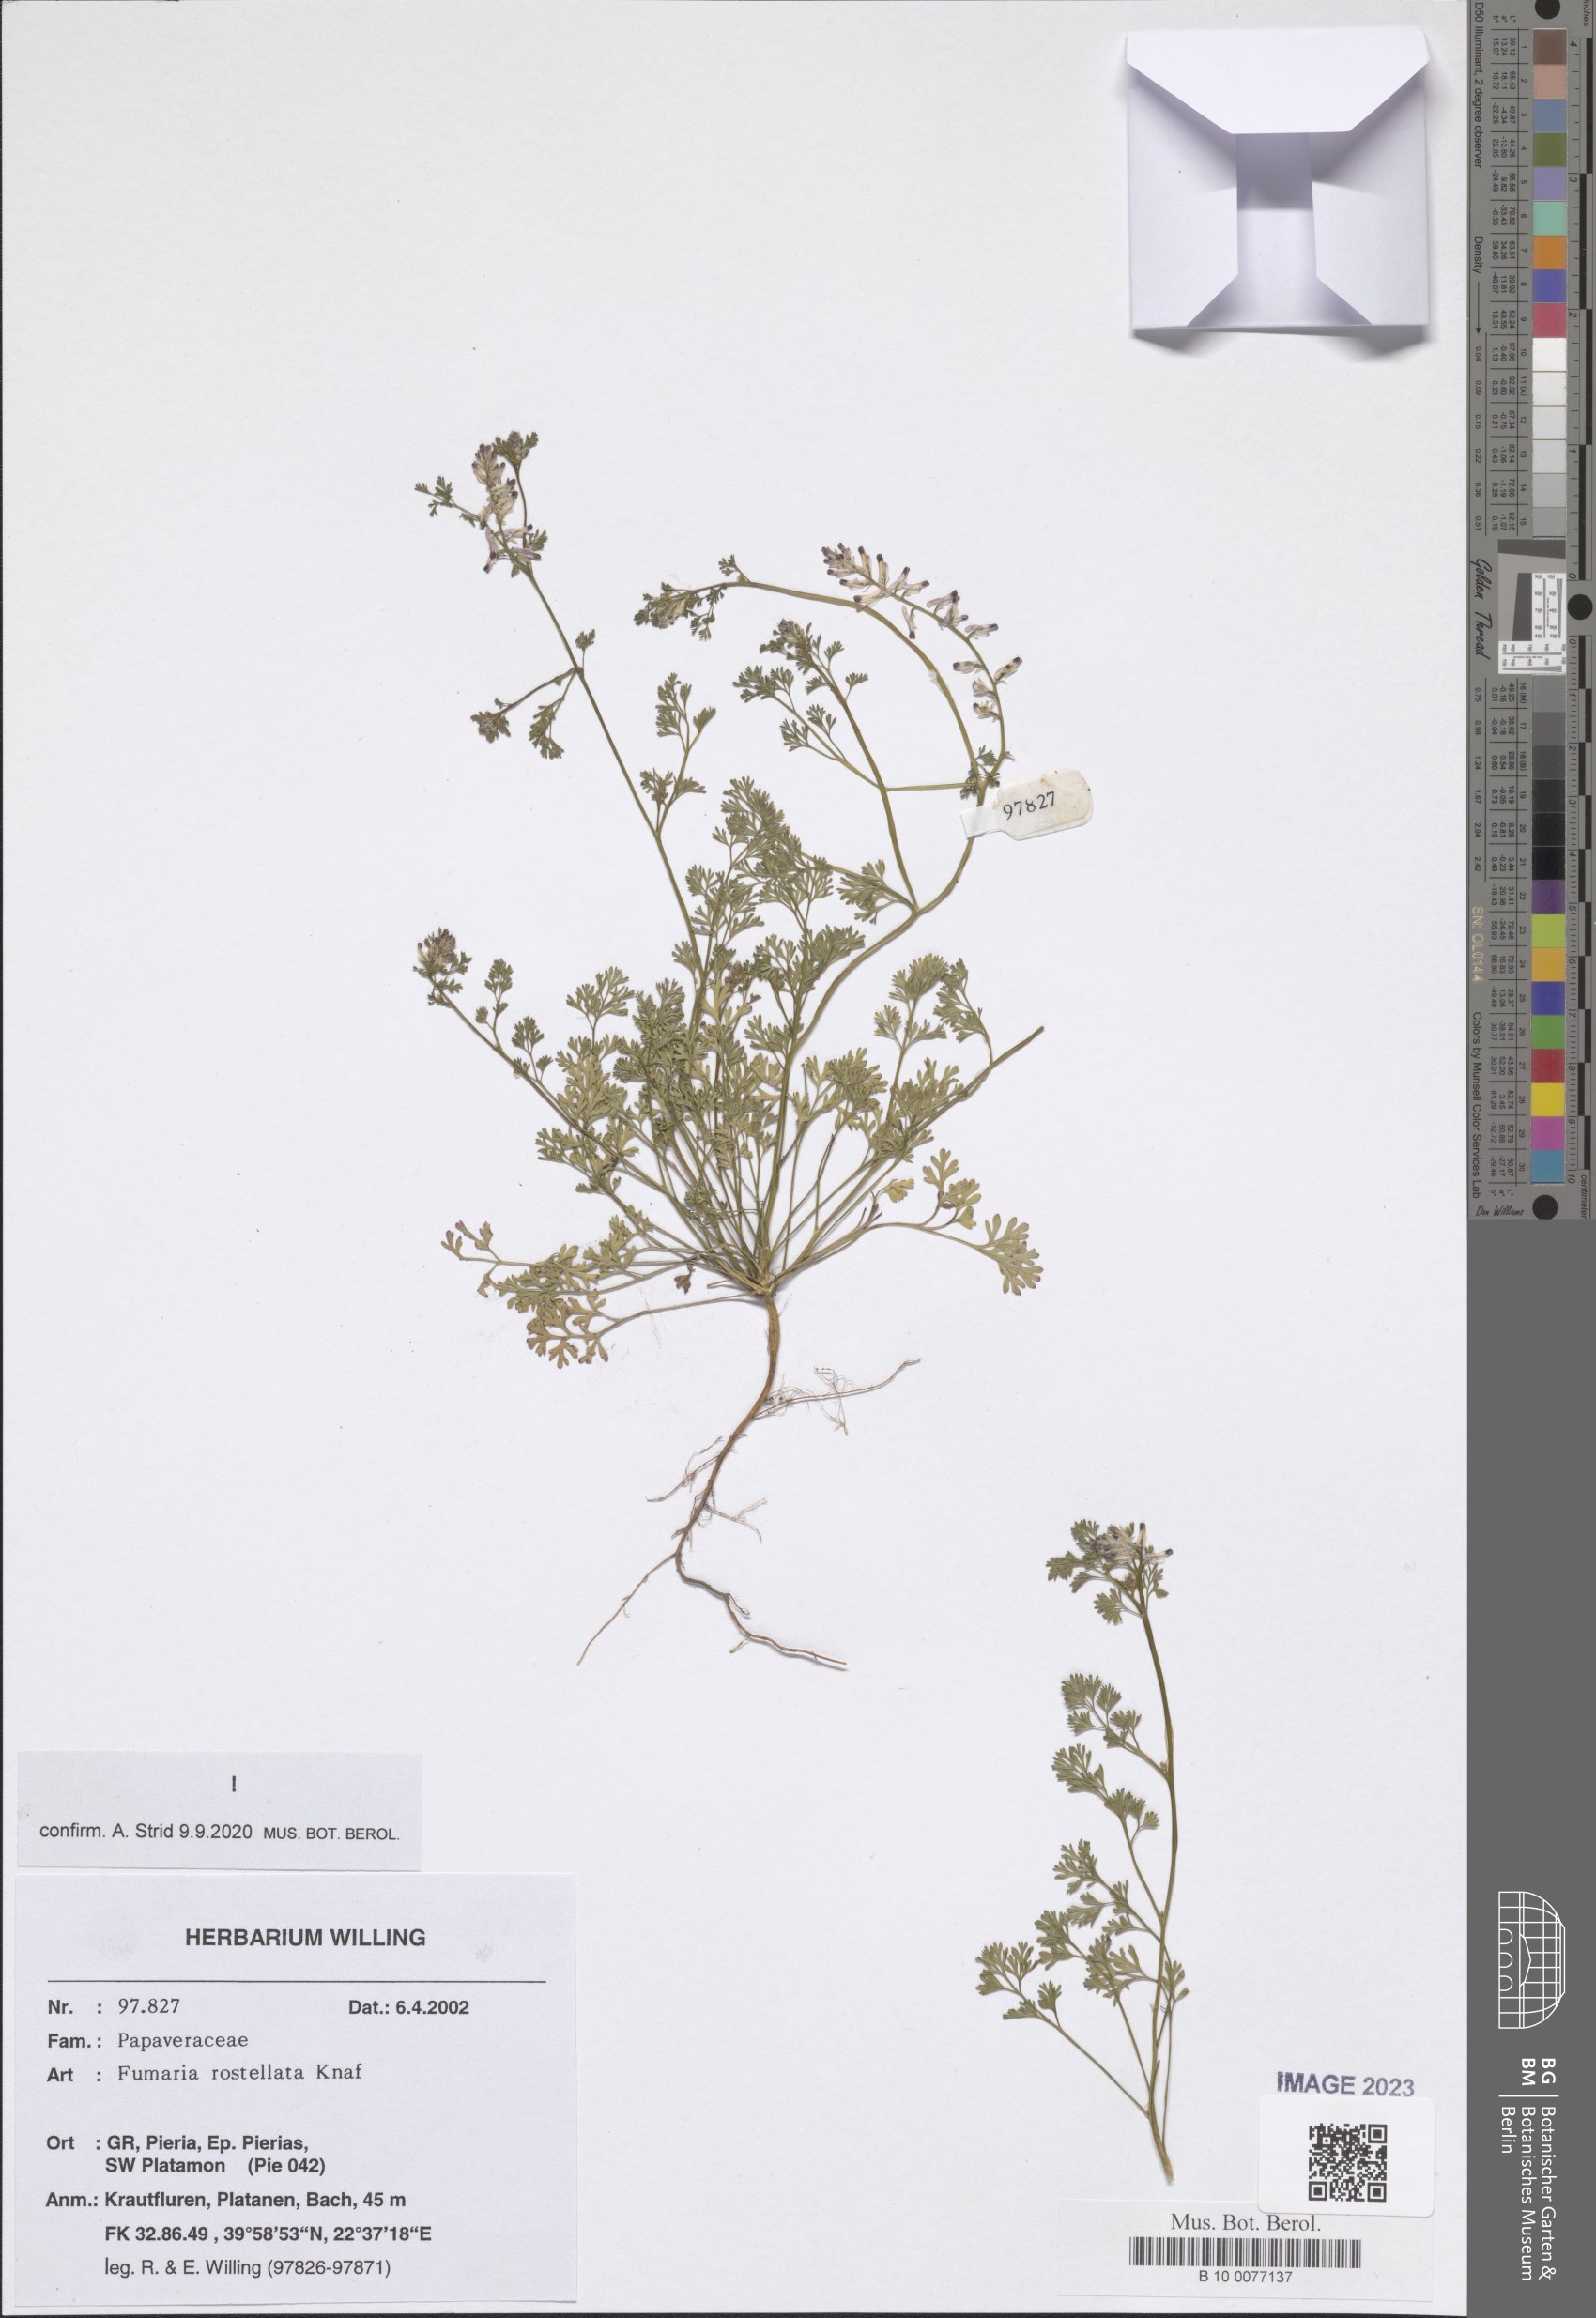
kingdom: Plantae
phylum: Tracheophyta
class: Magnoliopsida
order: Ranunculales
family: Papaveraceae
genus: Fumaria
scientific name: Fumaria rostellata
